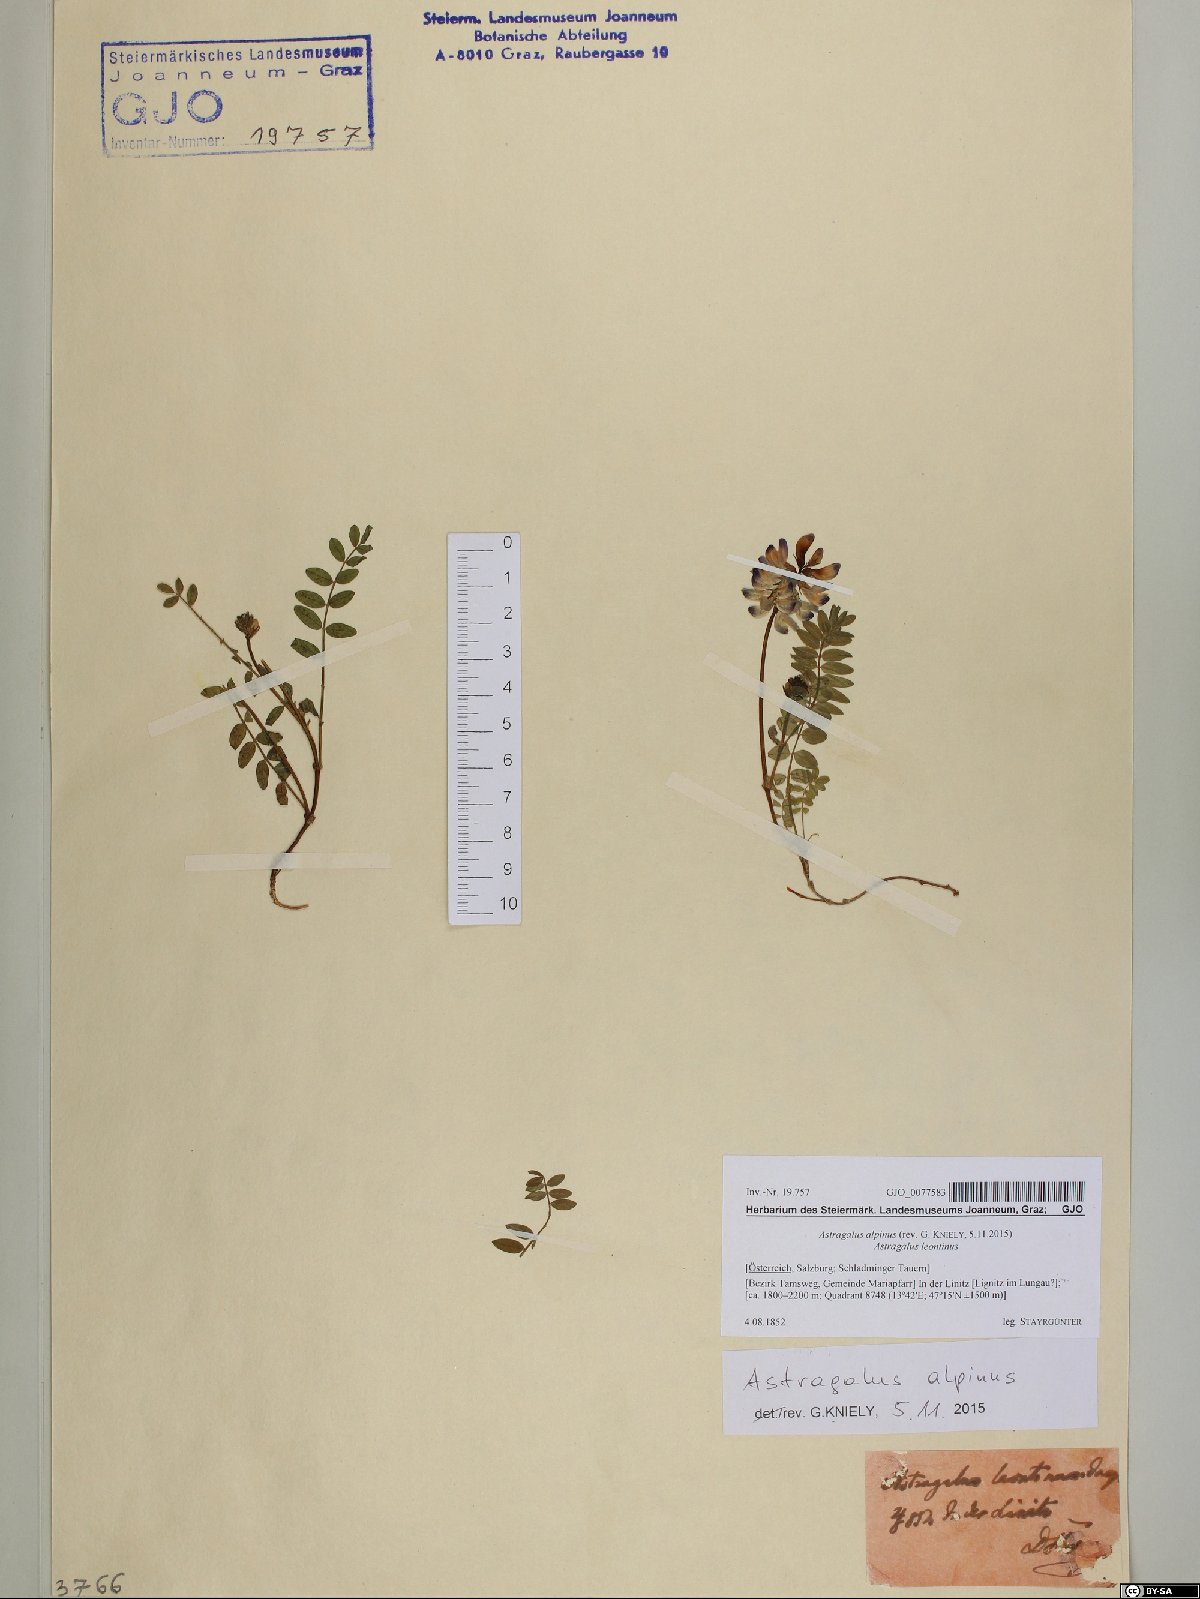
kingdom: Plantae
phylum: Tracheophyta
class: Magnoliopsida
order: Fabales
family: Fabaceae
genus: Astragalus
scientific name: Astragalus alpinus
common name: Alpine milk-vetch
